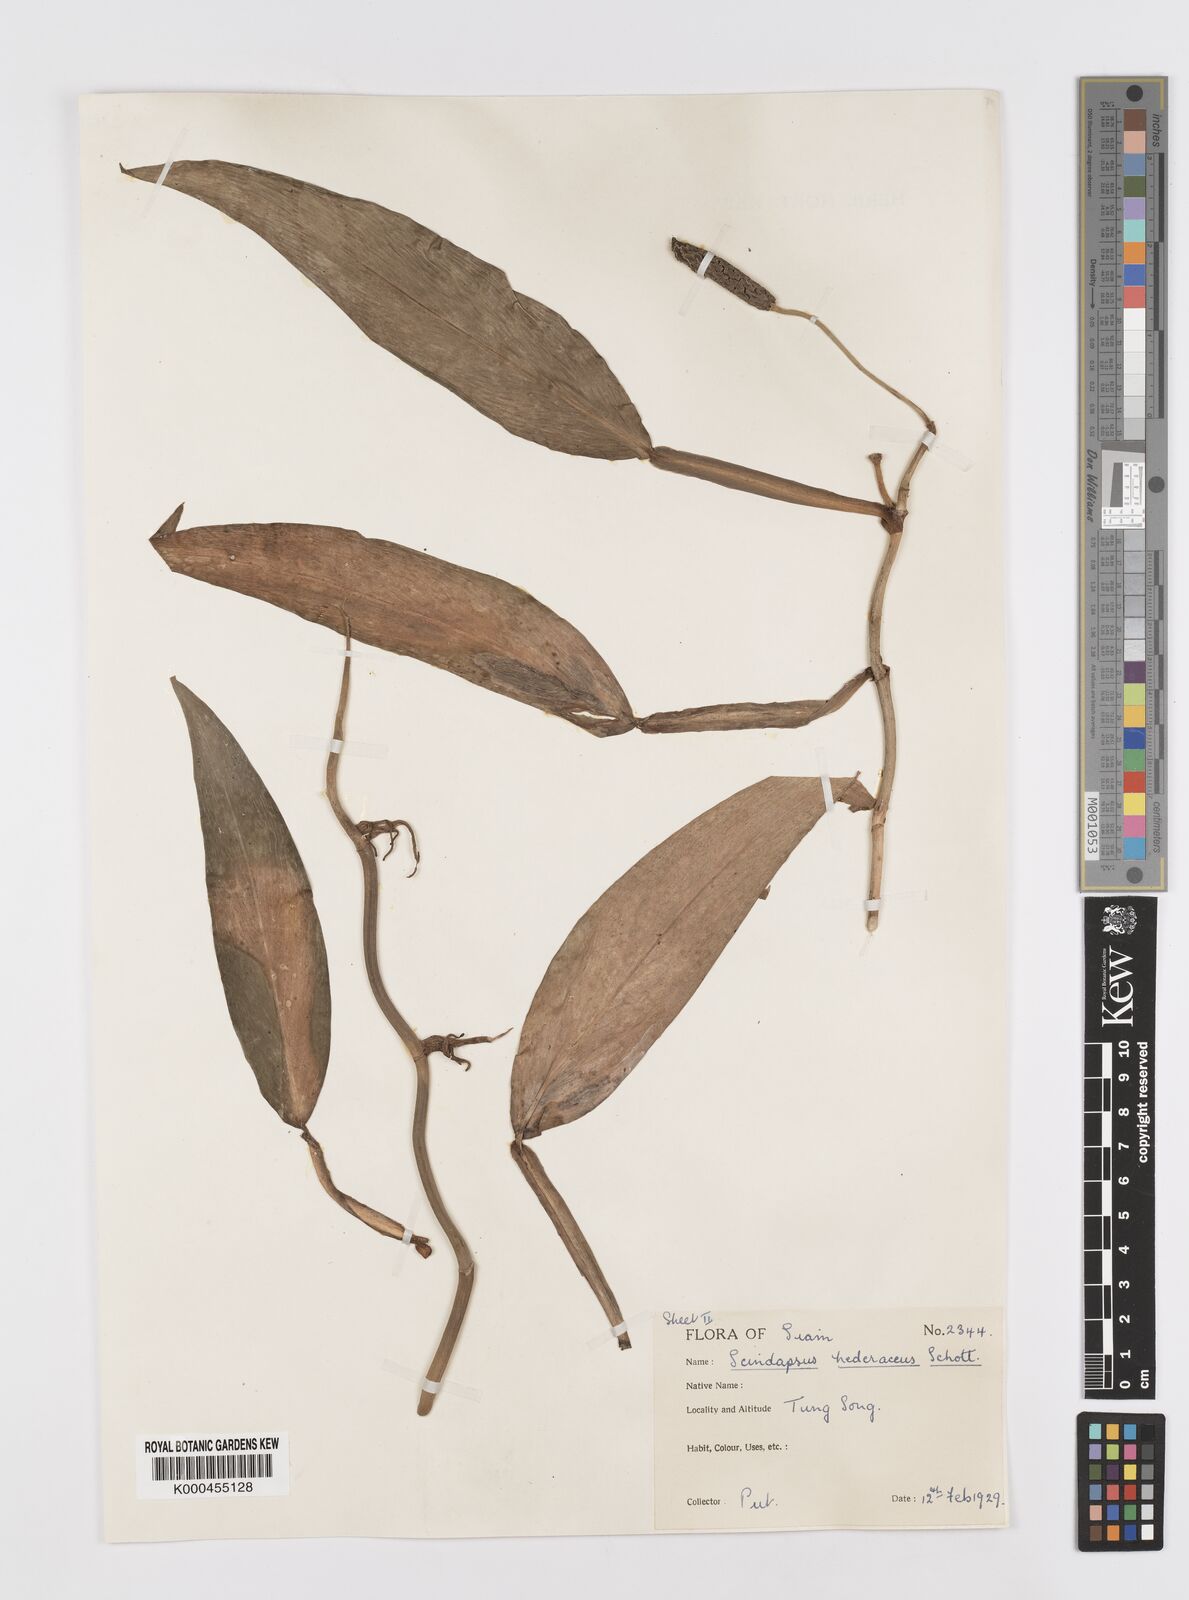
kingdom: Plantae
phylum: Tracheophyta
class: Liliopsida
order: Alismatales
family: Araceae
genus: Scindapsus
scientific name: Scindapsus hederaceus
